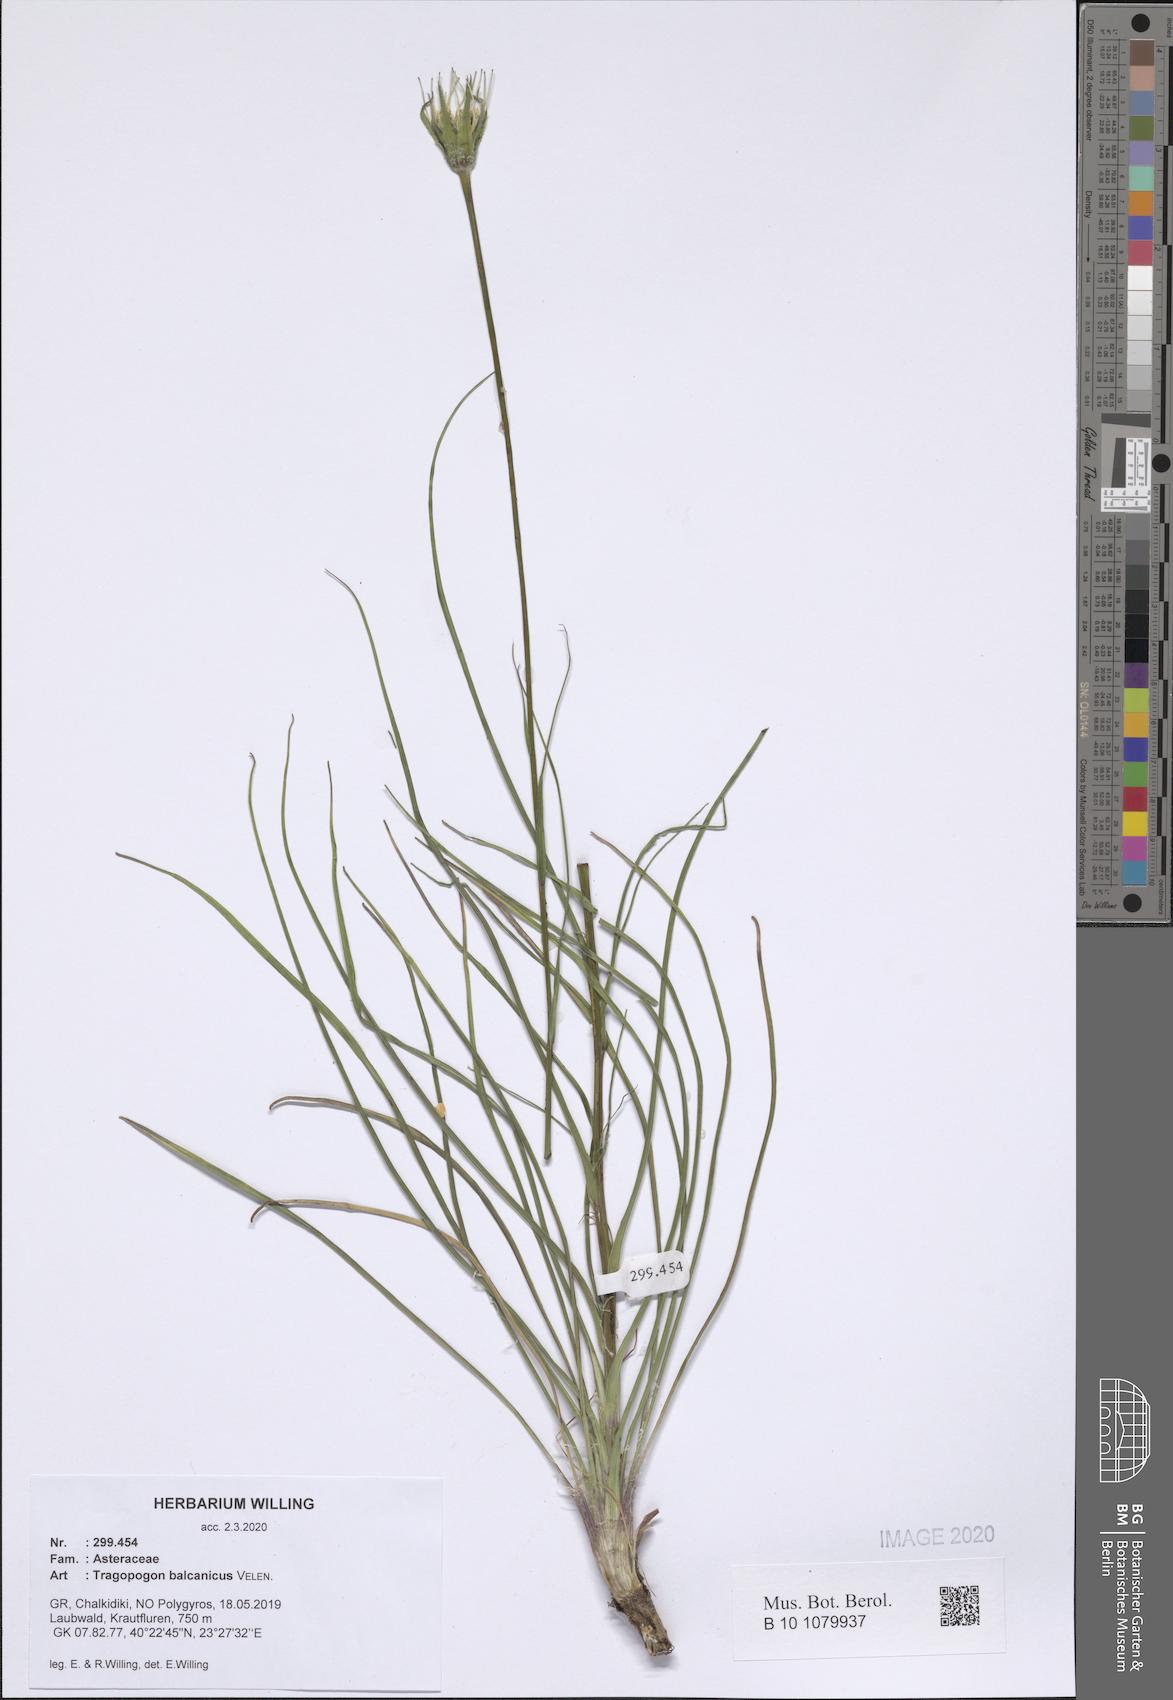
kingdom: Plantae
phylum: Tracheophyta
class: Magnoliopsida
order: Asterales
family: Asteraceae
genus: Tragopogon
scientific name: Tragopogon balcanicus
